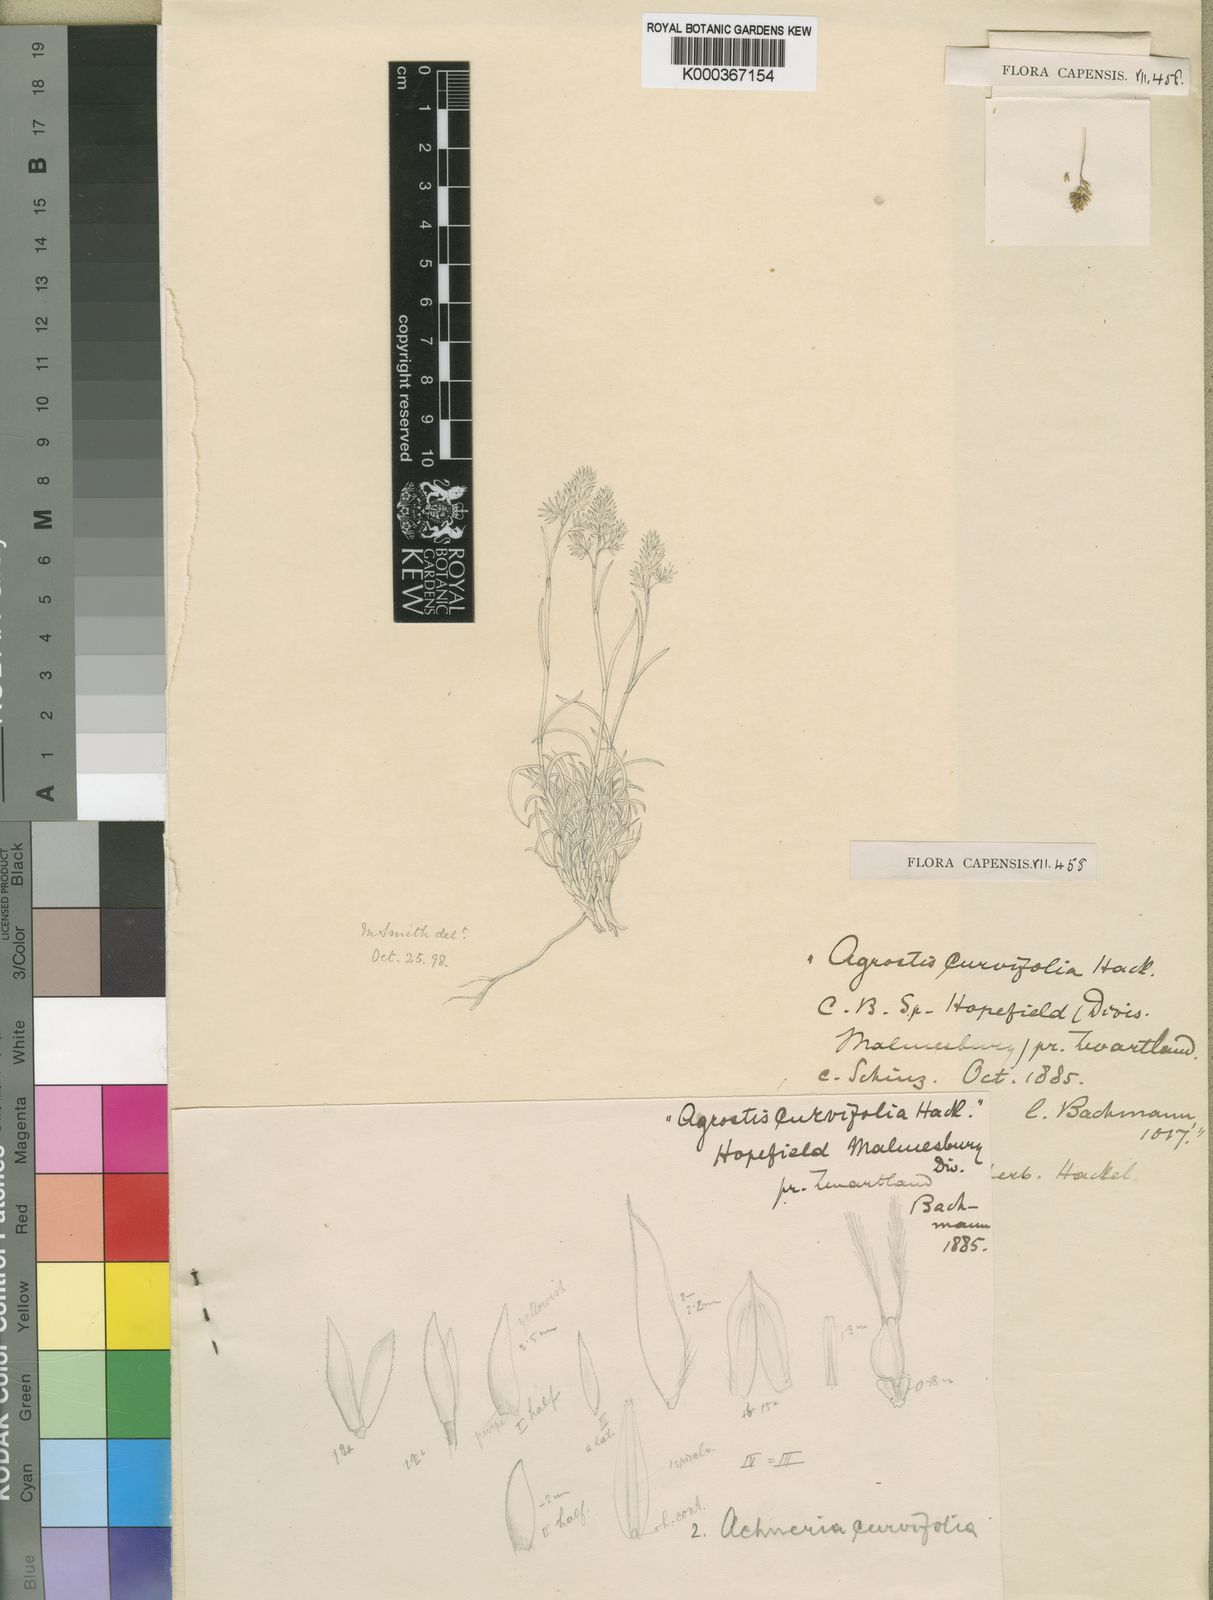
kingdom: Plantae
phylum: Tracheophyta
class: Liliopsida
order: Poales
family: Poaceae
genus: Pentameris
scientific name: Pentameris ecklonii
